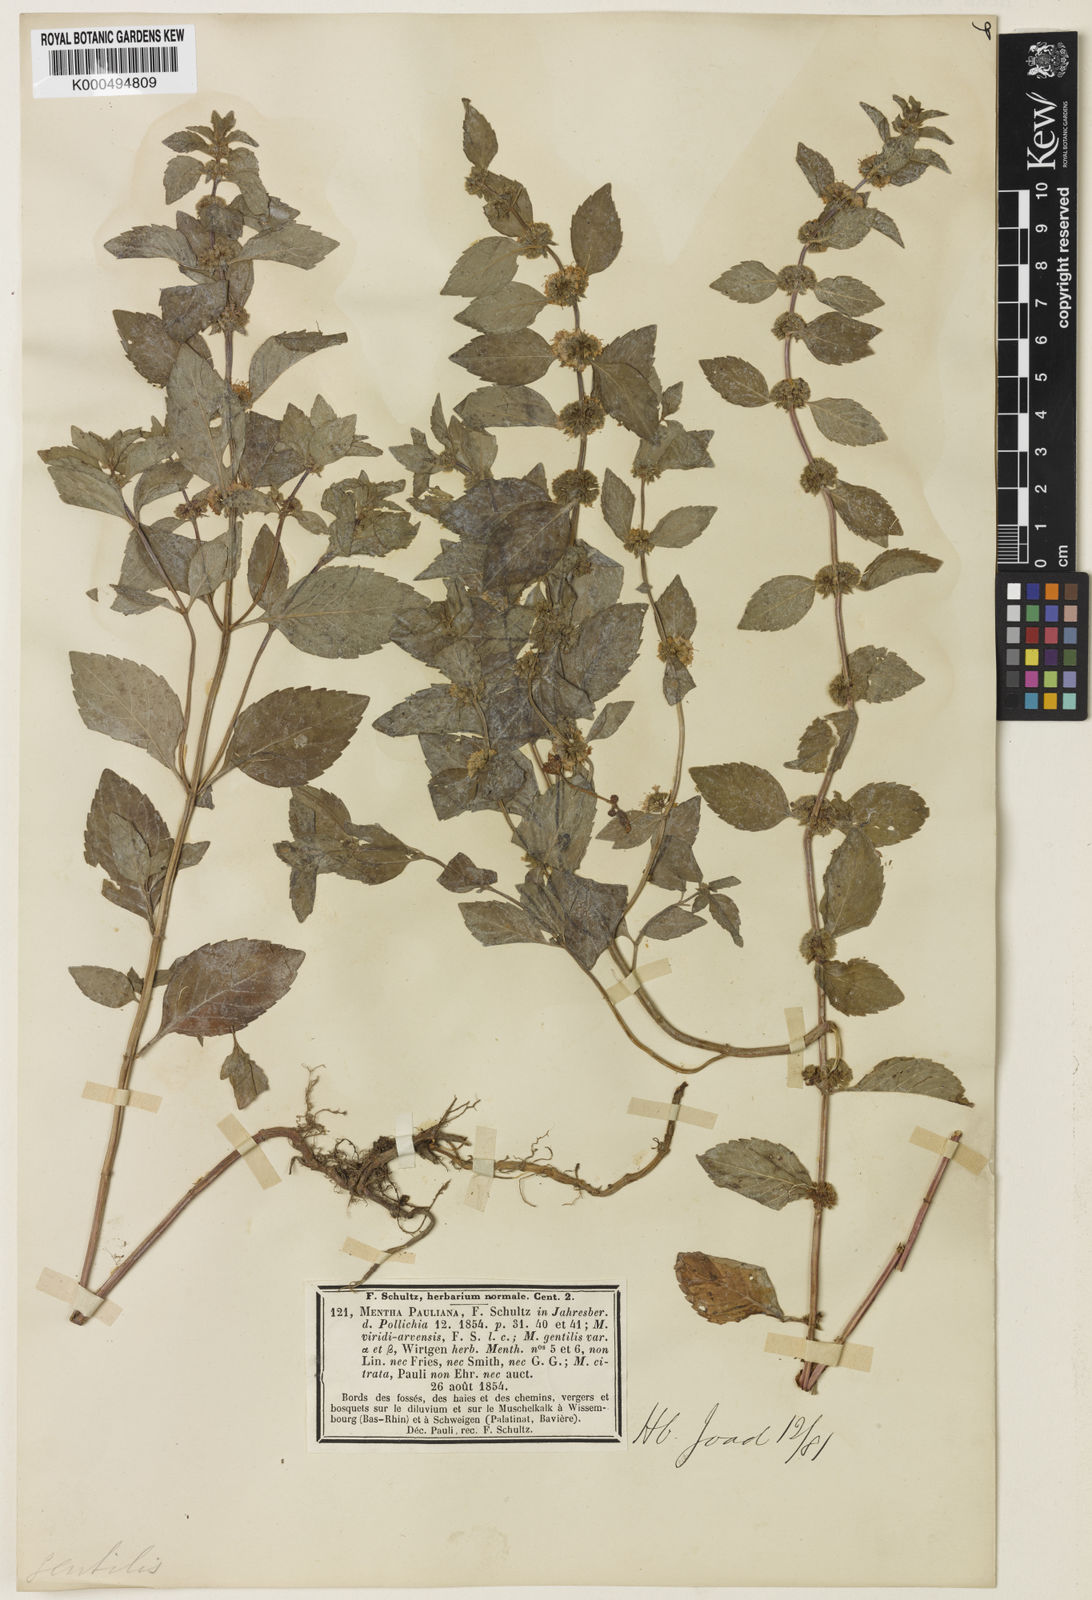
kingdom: Plantae
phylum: Tracheophyta
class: Magnoliopsida
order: Lamiales
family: Lamiaceae
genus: Mentha
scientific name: Mentha arvensis
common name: Corn mint
